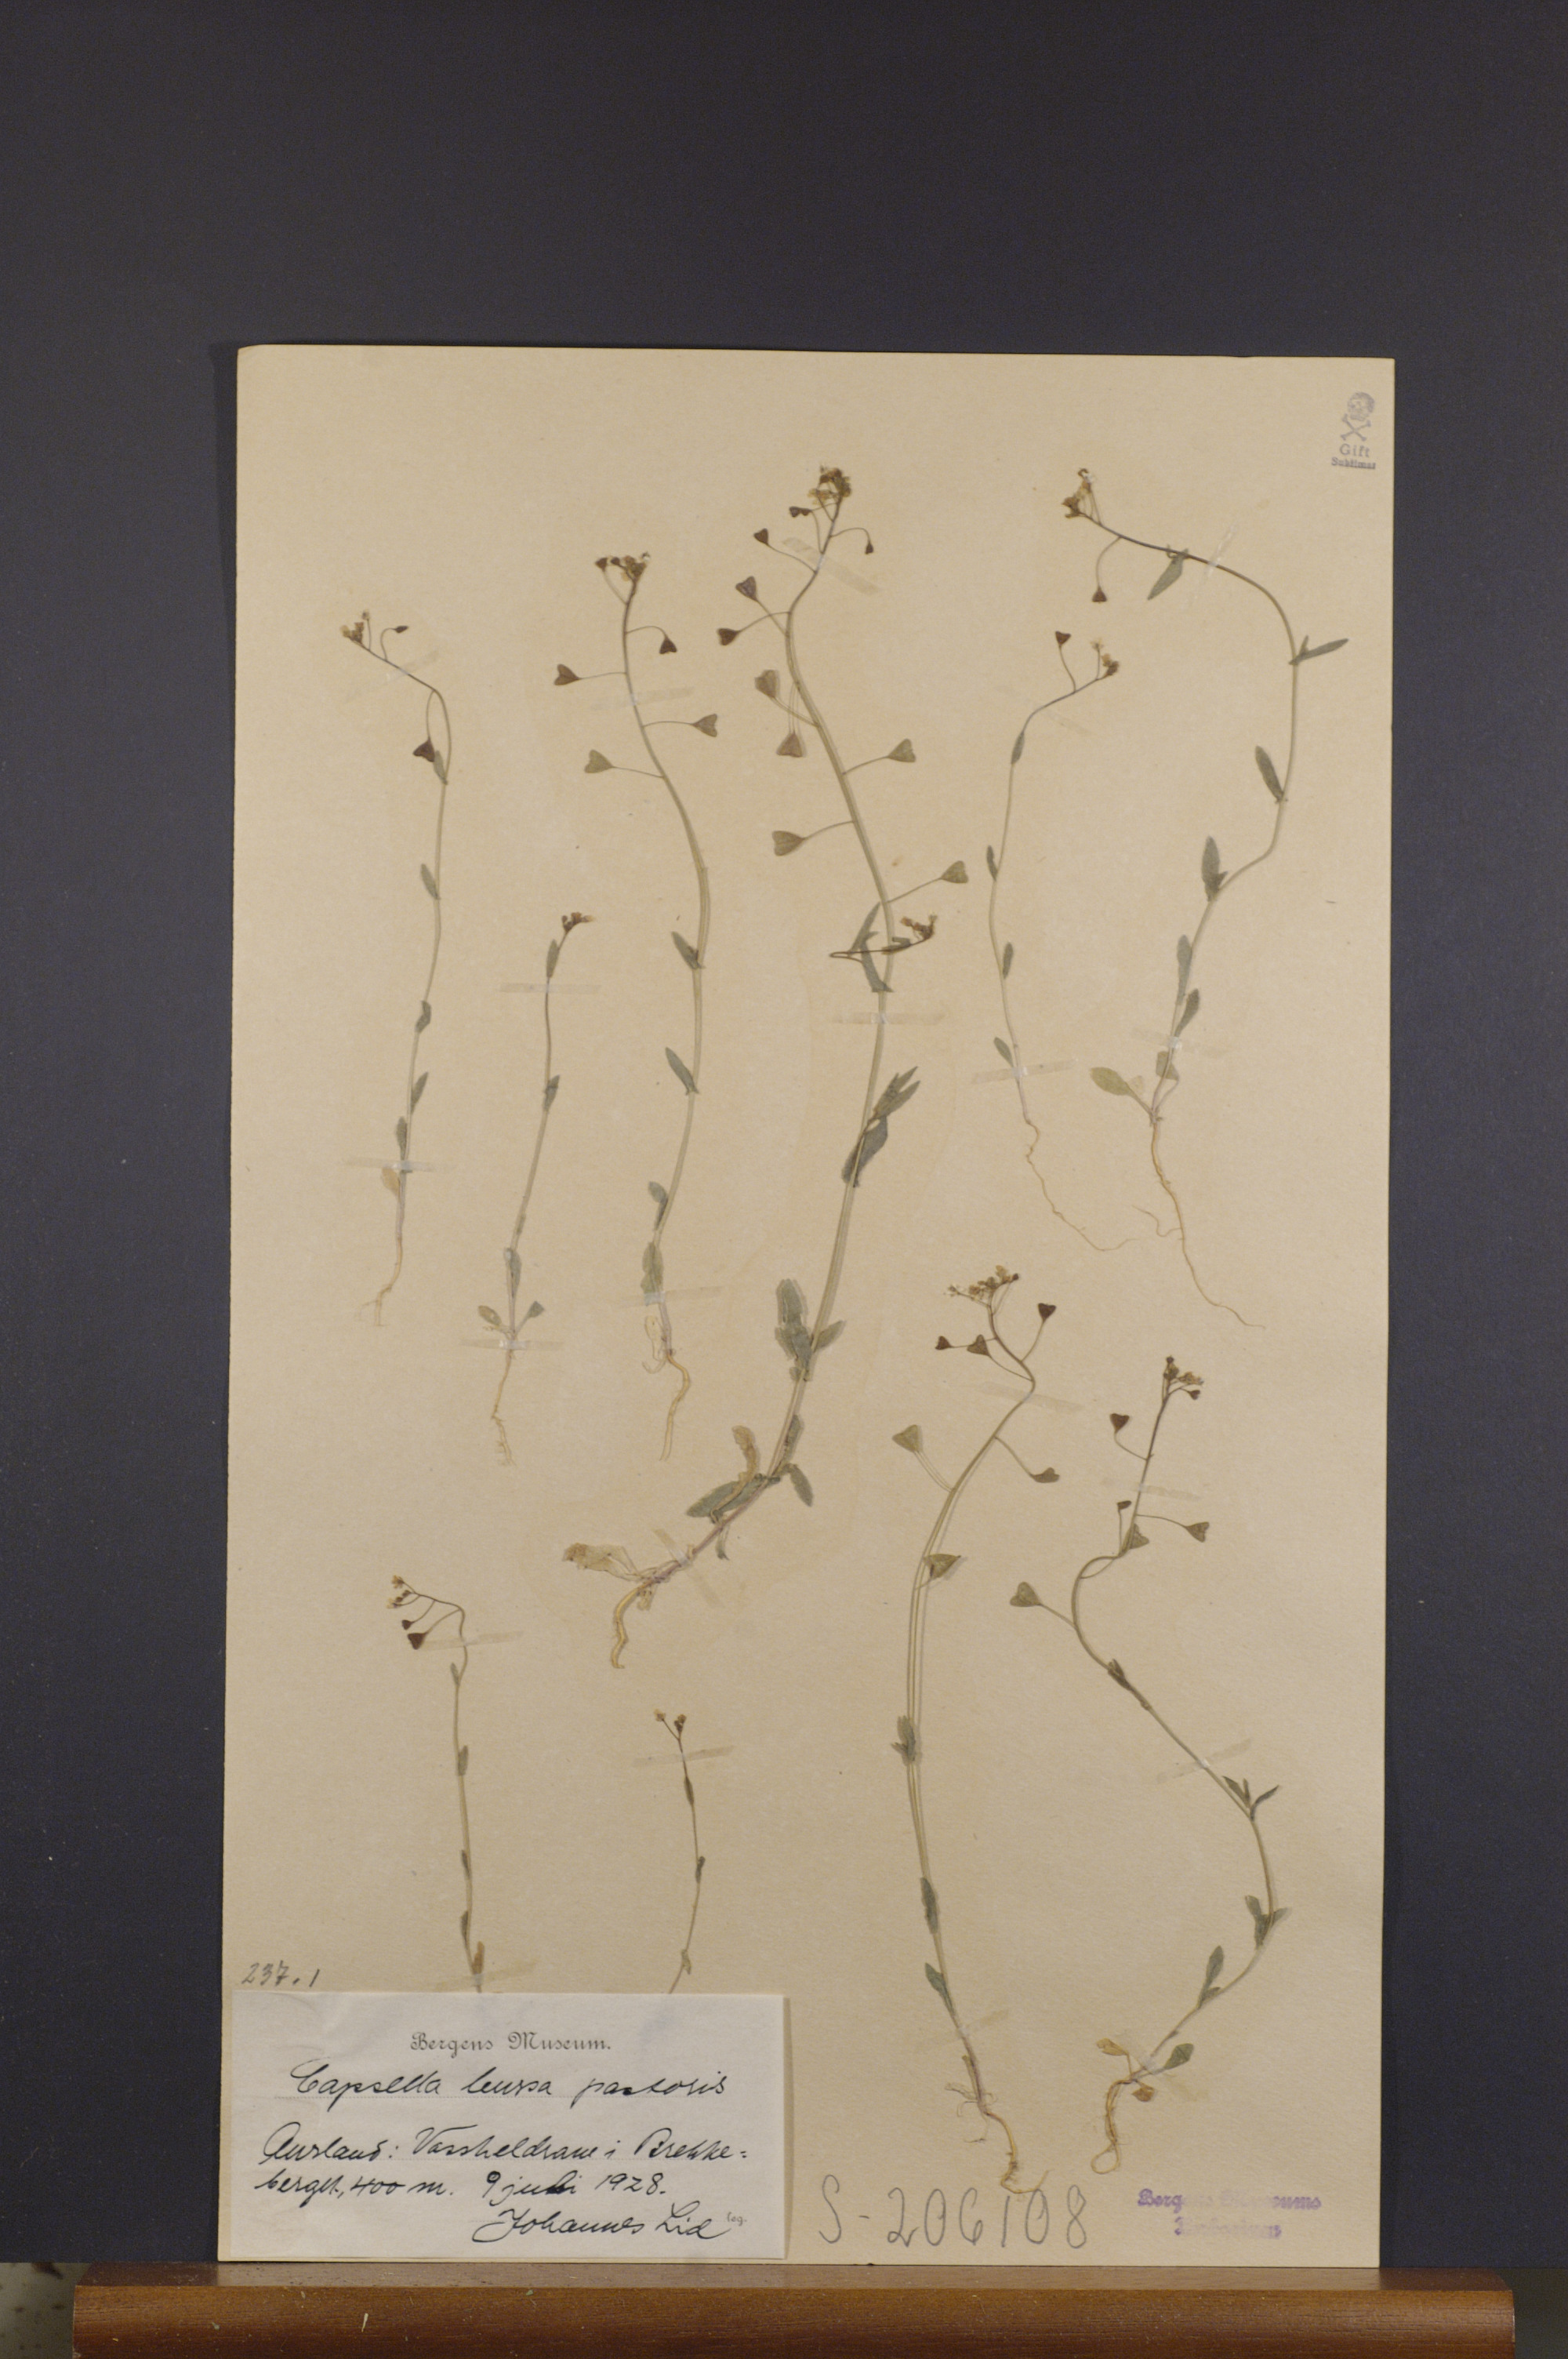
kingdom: Plantae
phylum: Tracheophyta
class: Magnoliopsida
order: Brassicales
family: Brassicaceae
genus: Capsella
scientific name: Capsella bursa-pastoris
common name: Shepherd's purse
